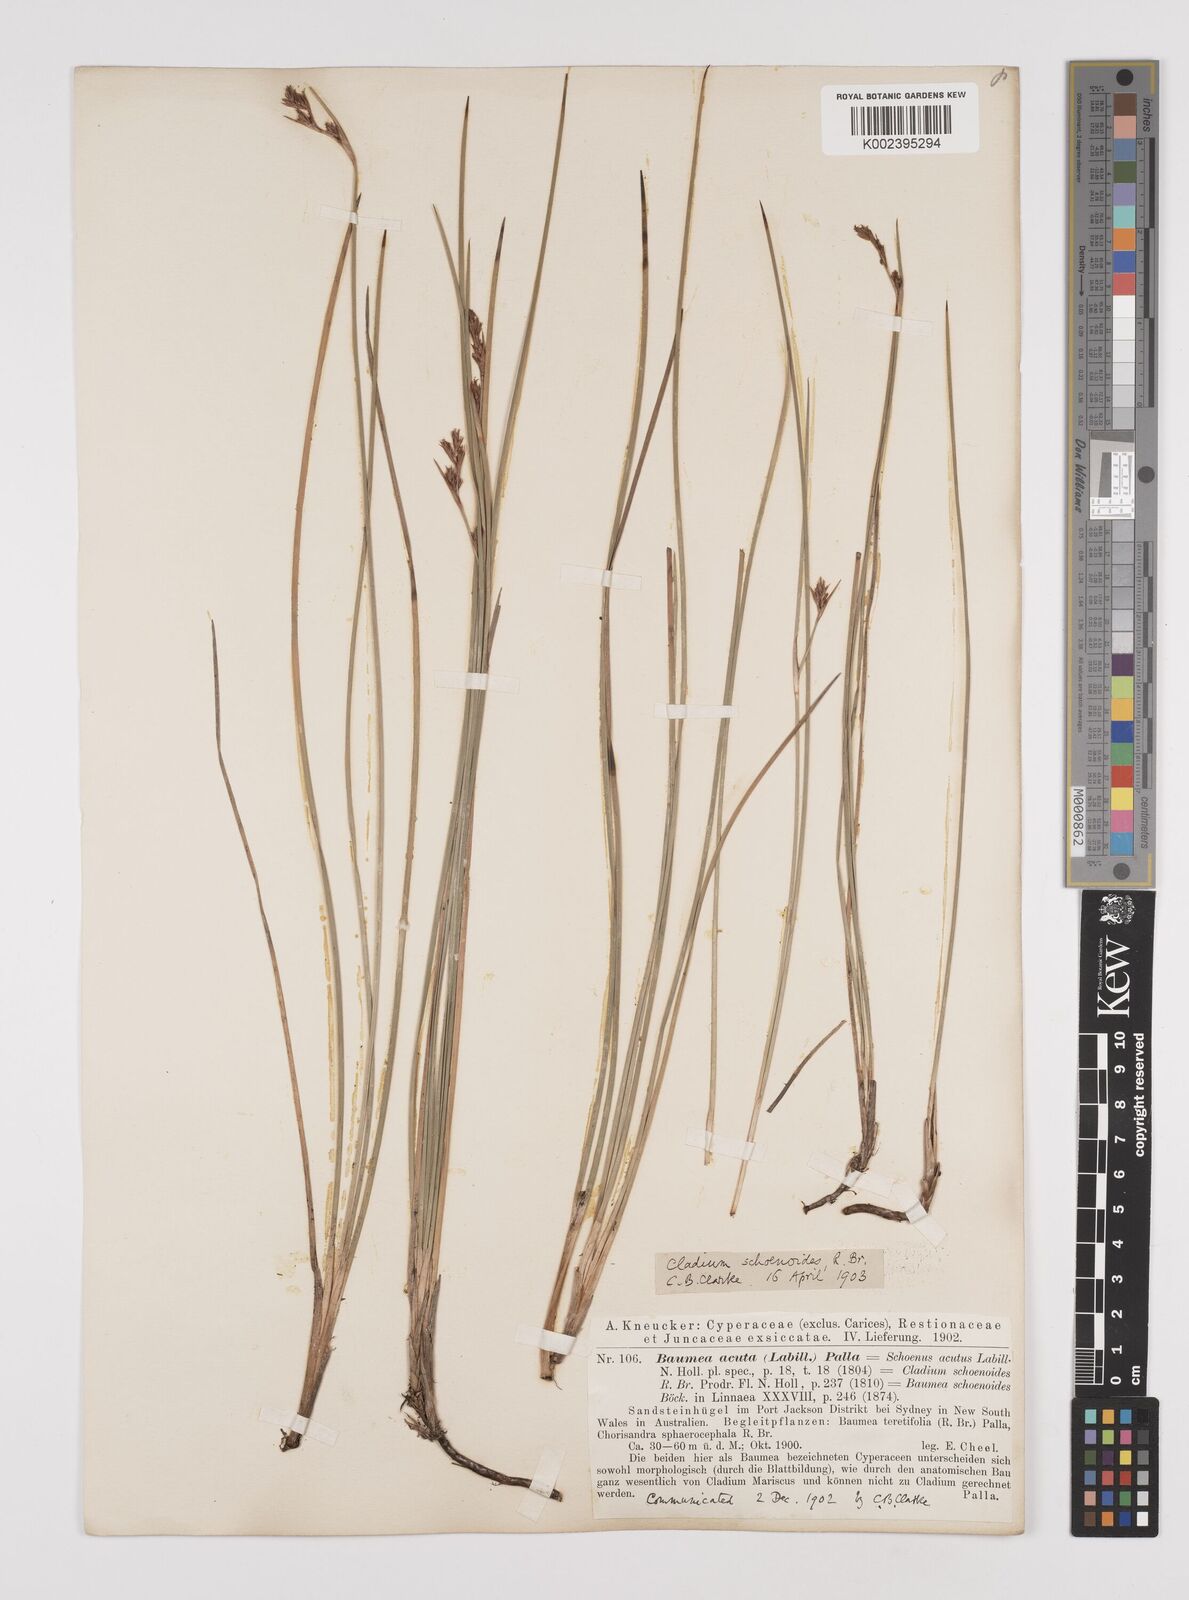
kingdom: Plantae
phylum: Tracheophyta
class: Liliopsida
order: Poales
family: Cyperaceae
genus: Machaerina
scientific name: Machaerina acuta
